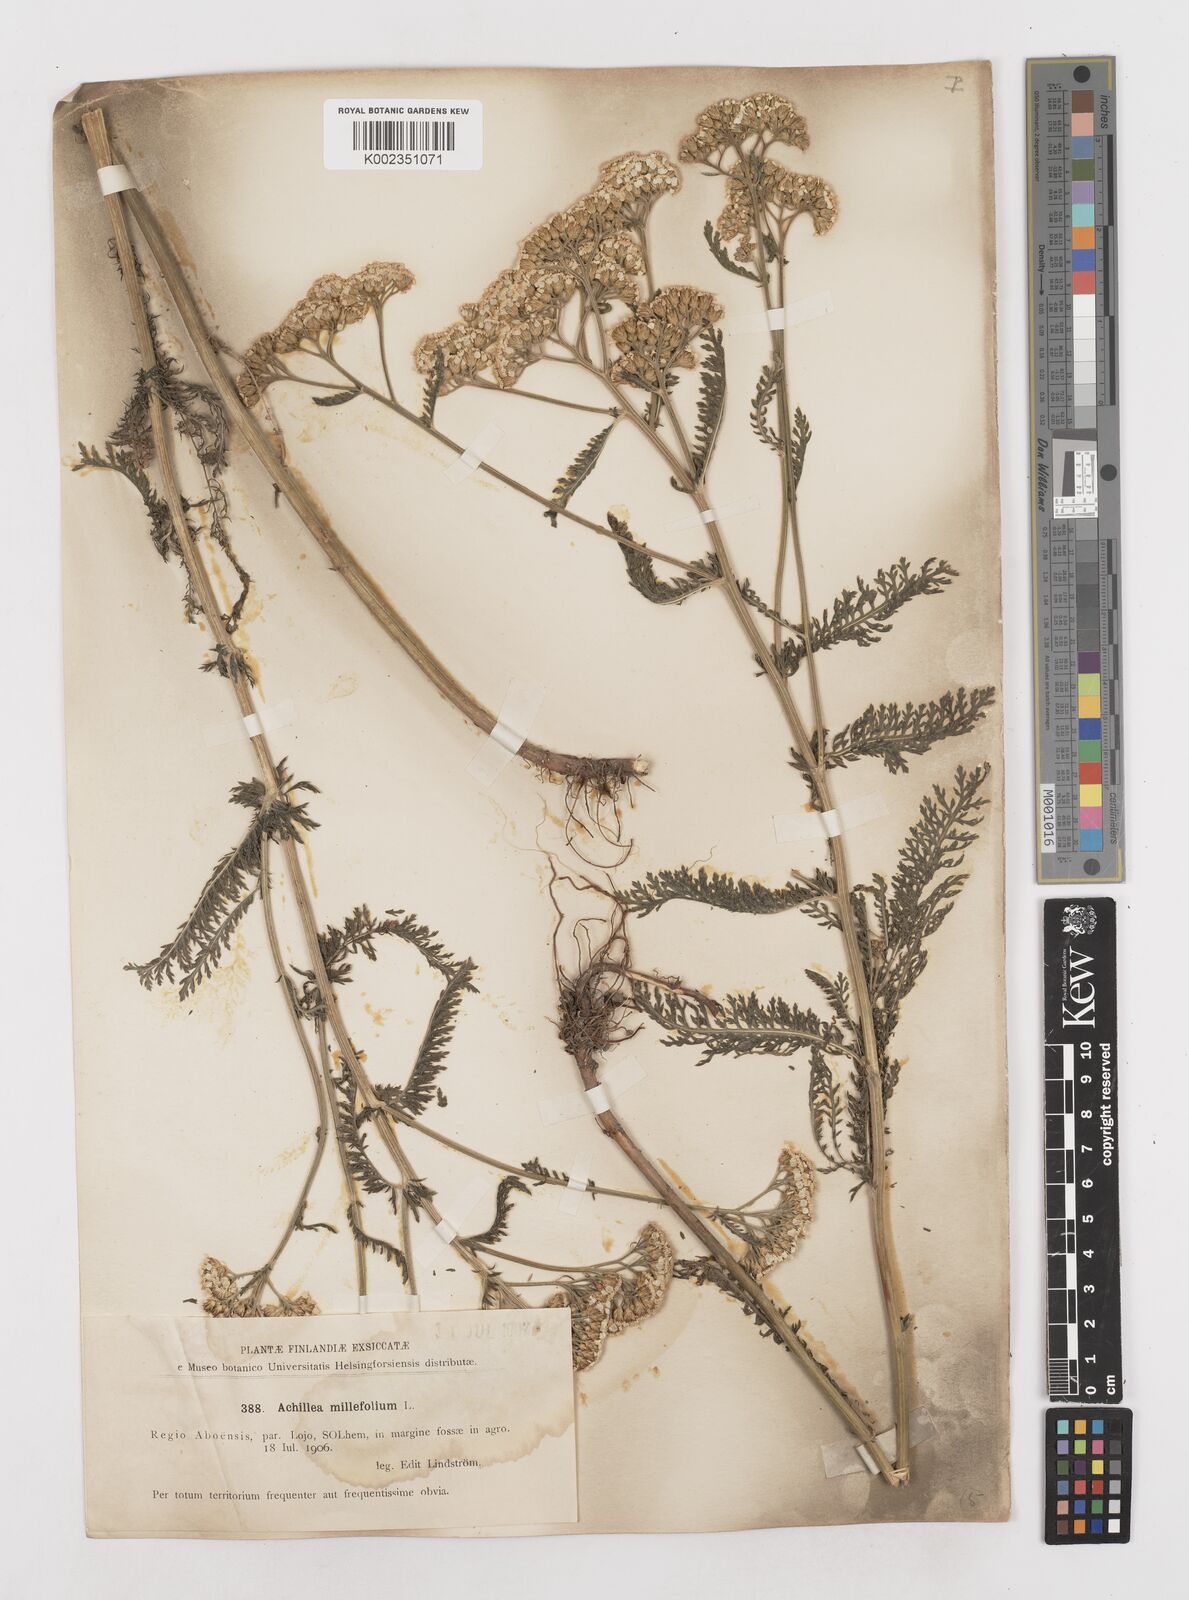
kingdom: Plantae
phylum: Tracheophyta
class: Magnoliopsida
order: Asterales
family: Asteraceae
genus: Achillea
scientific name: Achillea millefolium
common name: Yarrow
